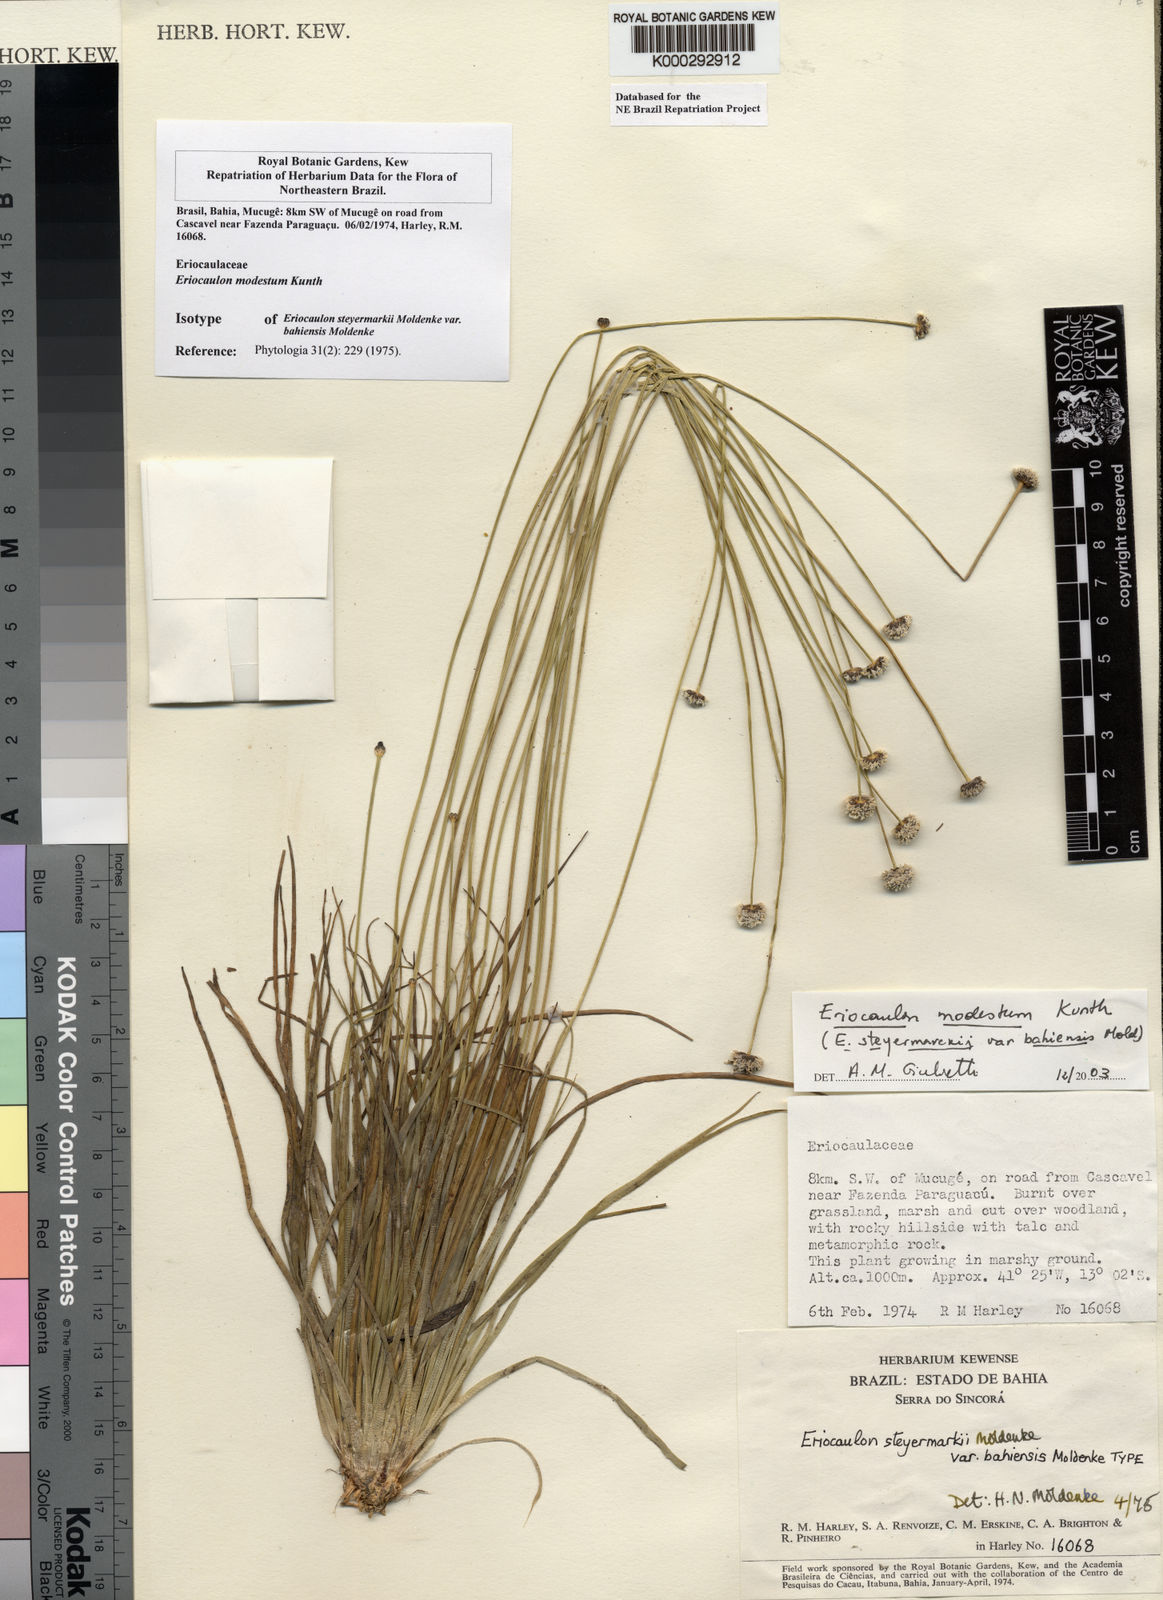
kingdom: Plantae
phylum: Tracheophyta
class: Liliopsida
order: Poales
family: Eriocaulaceae
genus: Eriocaulon
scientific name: Eriocaulon modestum
